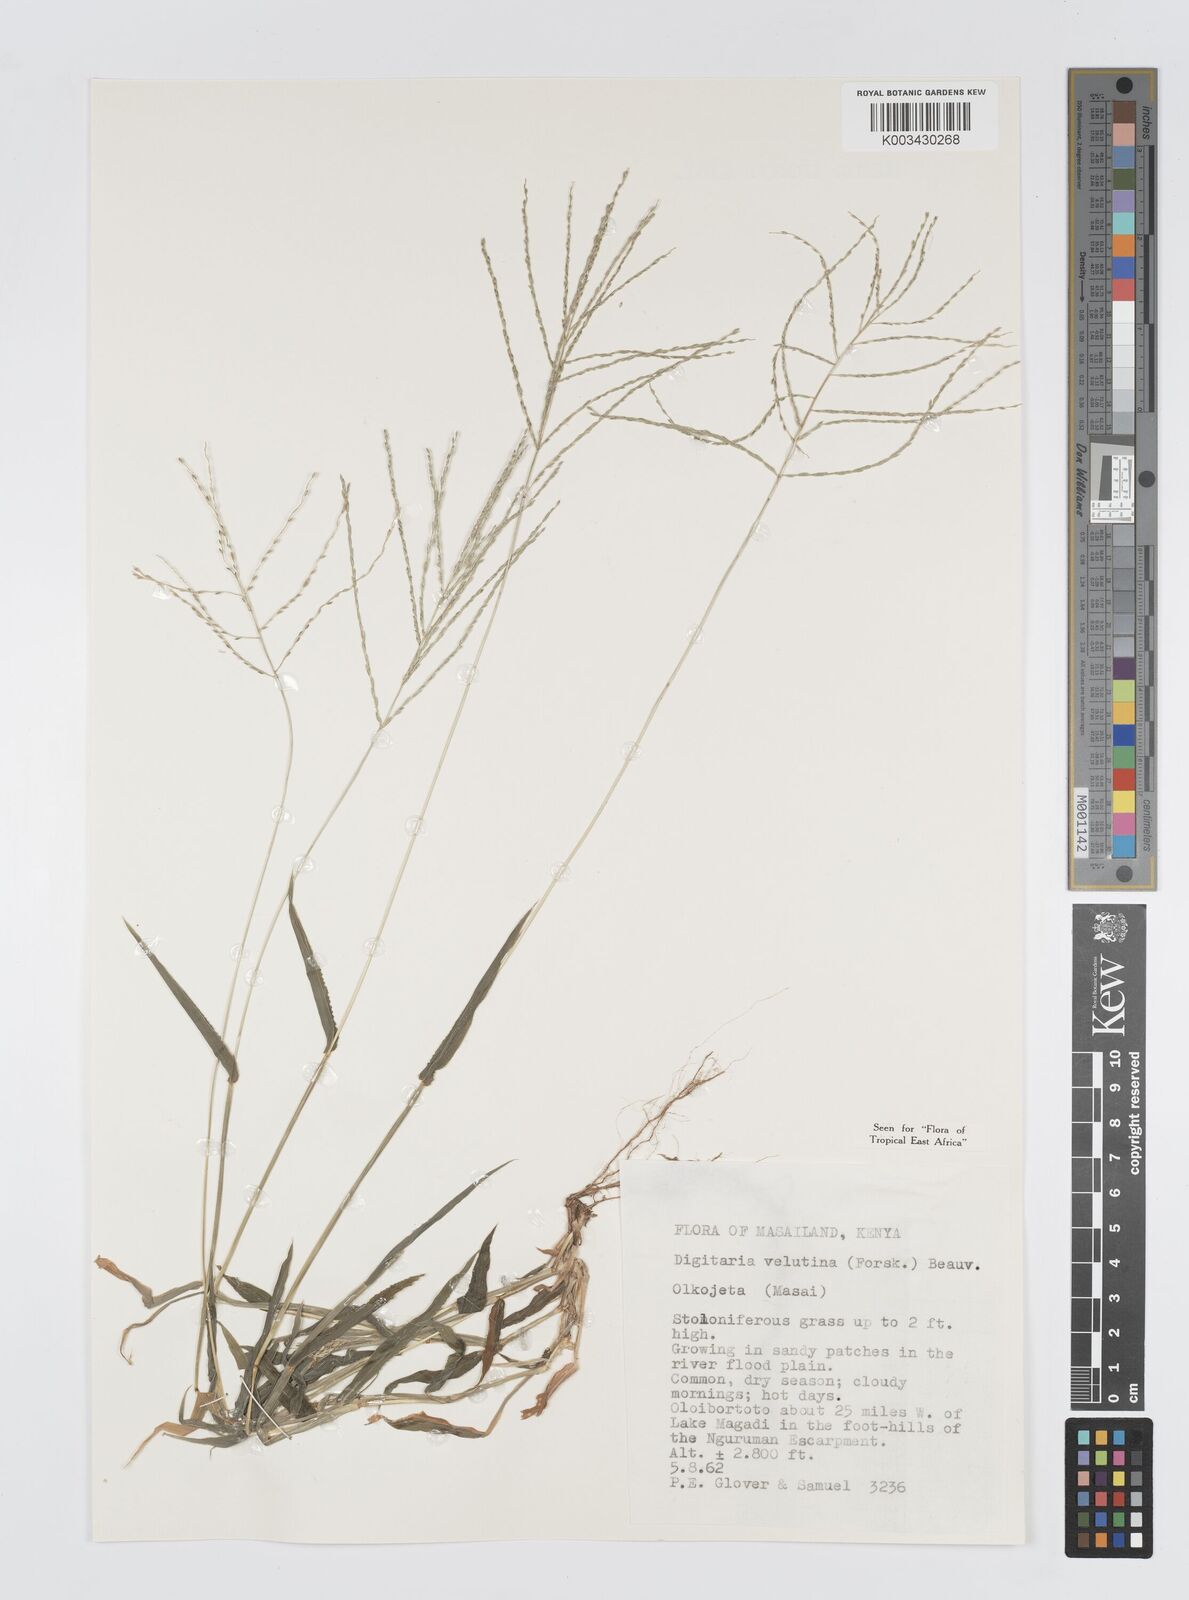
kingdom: Plantae
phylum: Tracheophyta
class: Liliopsida
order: Poales
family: Poaceae
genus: Digitaria
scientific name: Digitaria velutina
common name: Long-plume finger grass
